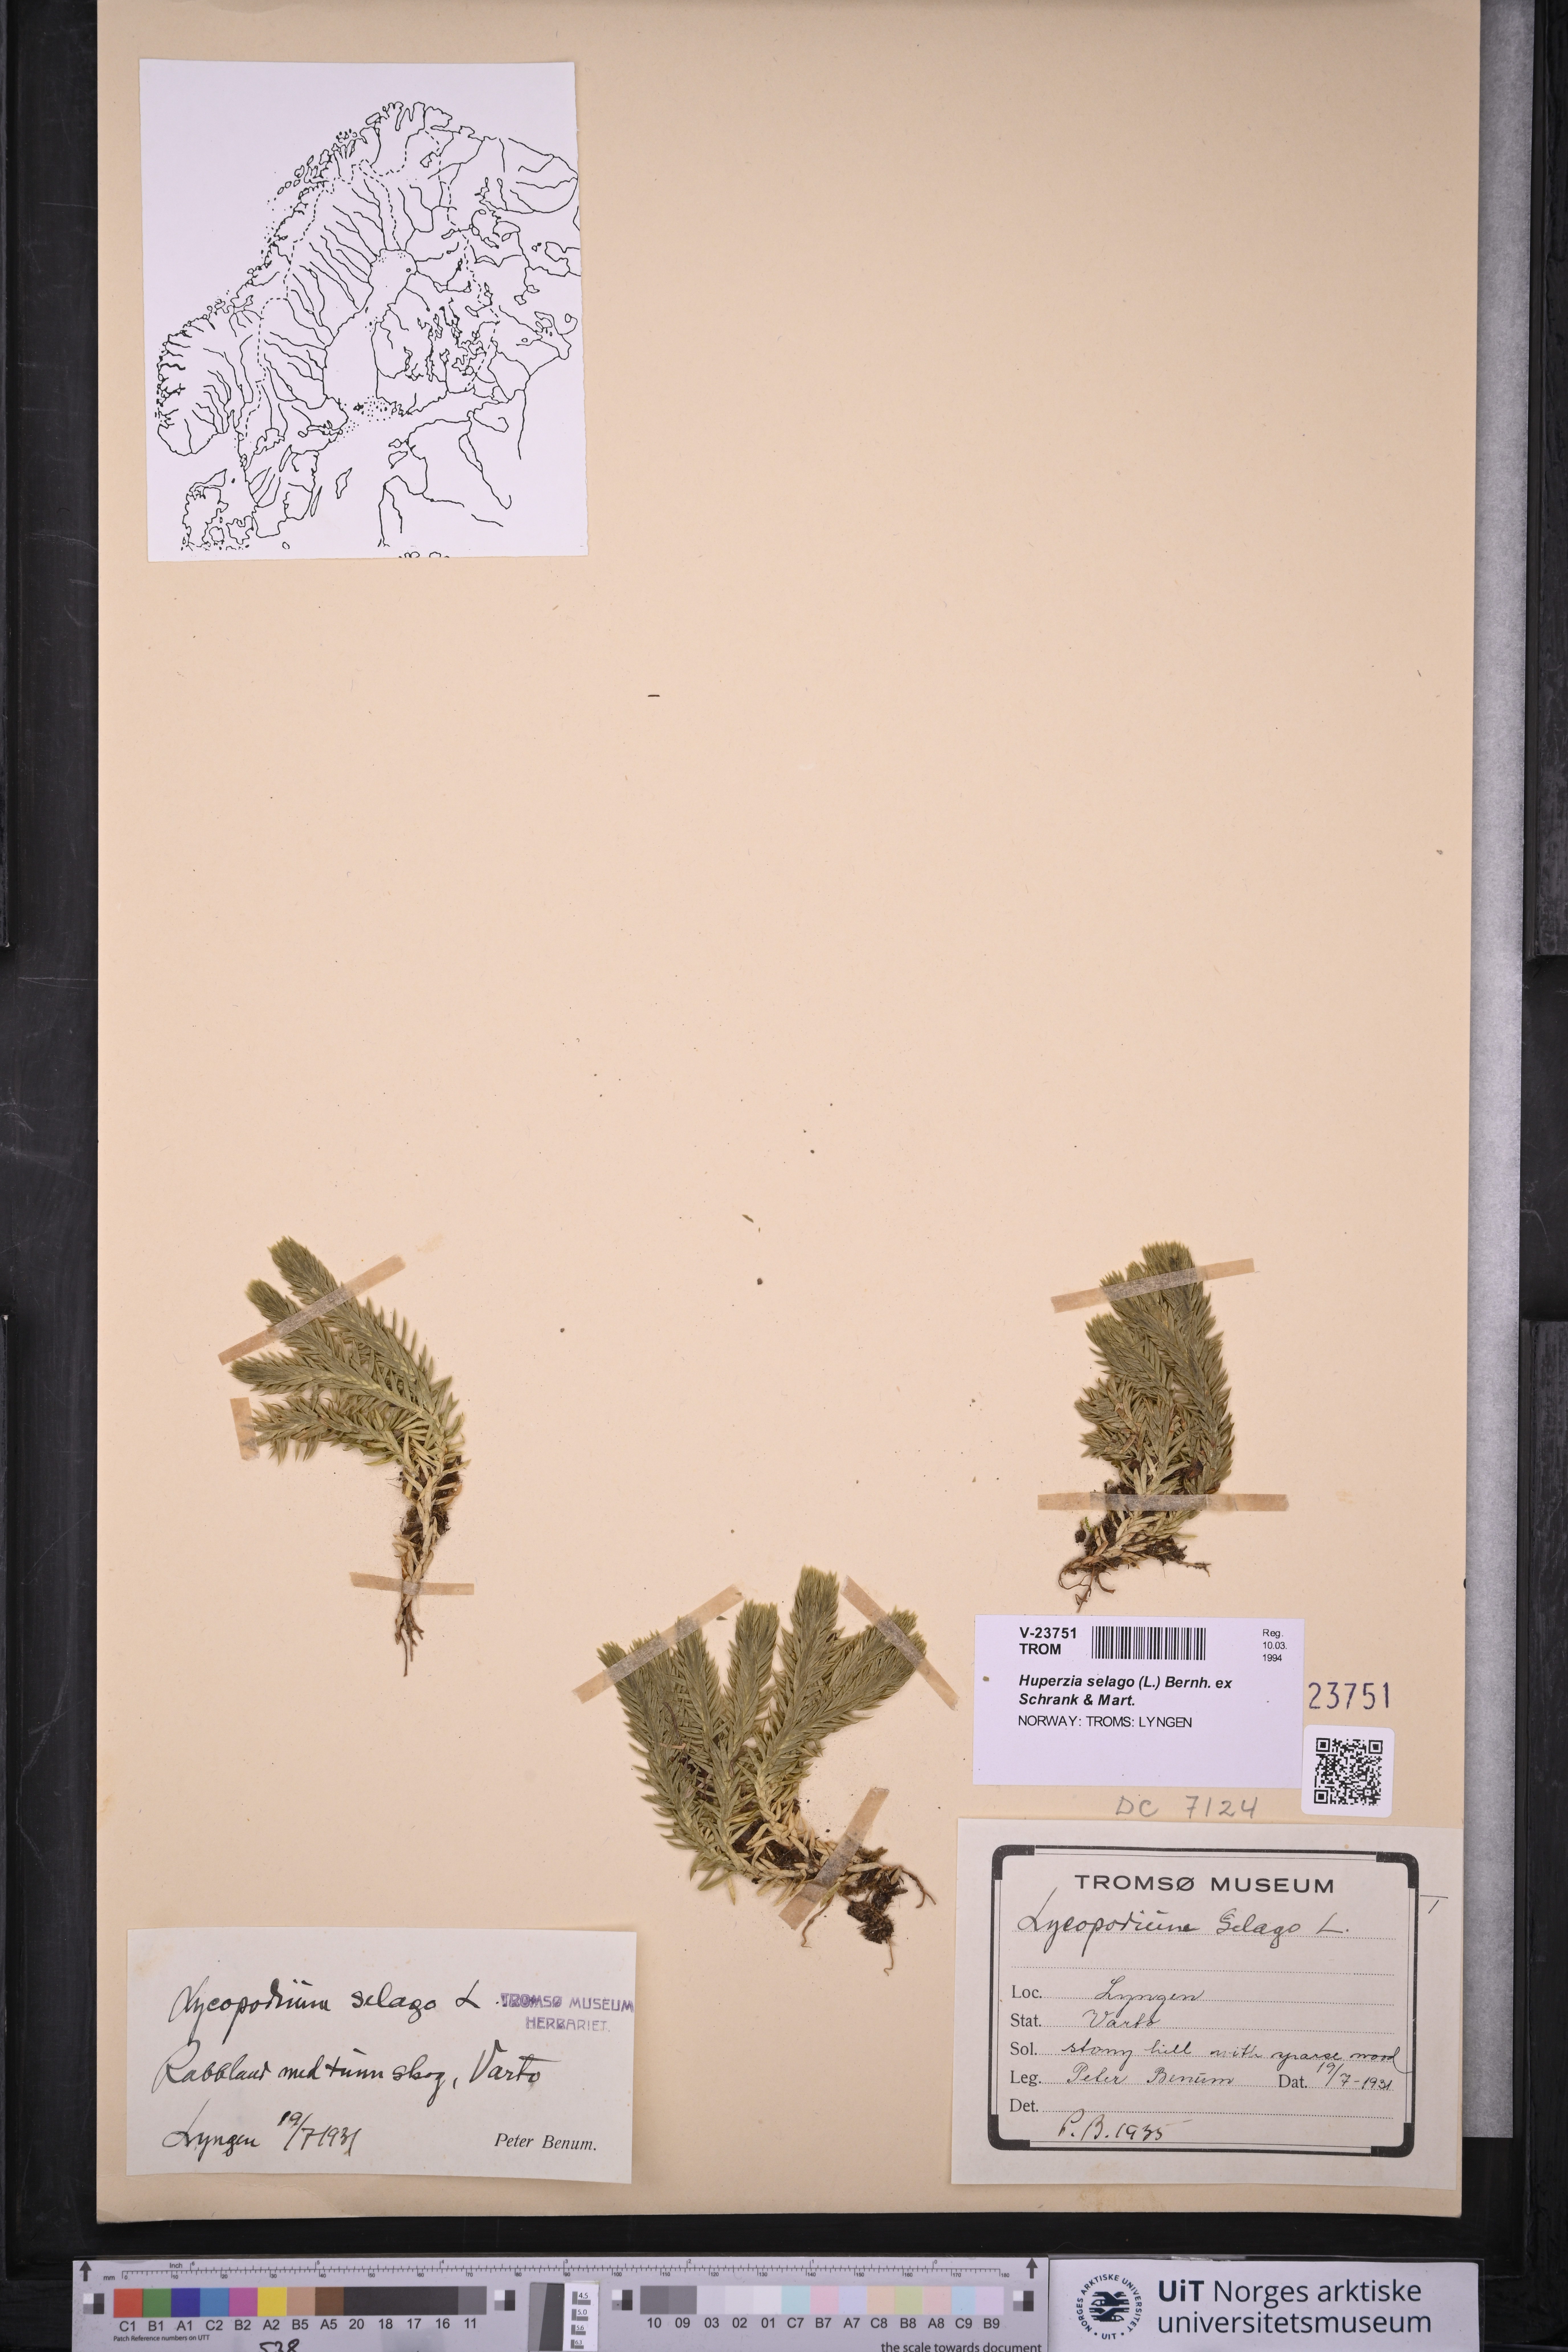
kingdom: Plantae
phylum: Tracheophyta
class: Lycopodiopsida
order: Lycopodiales
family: Lycopodiaceae
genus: Huperzia
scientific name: Huperzia selago
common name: Northern firmoss
